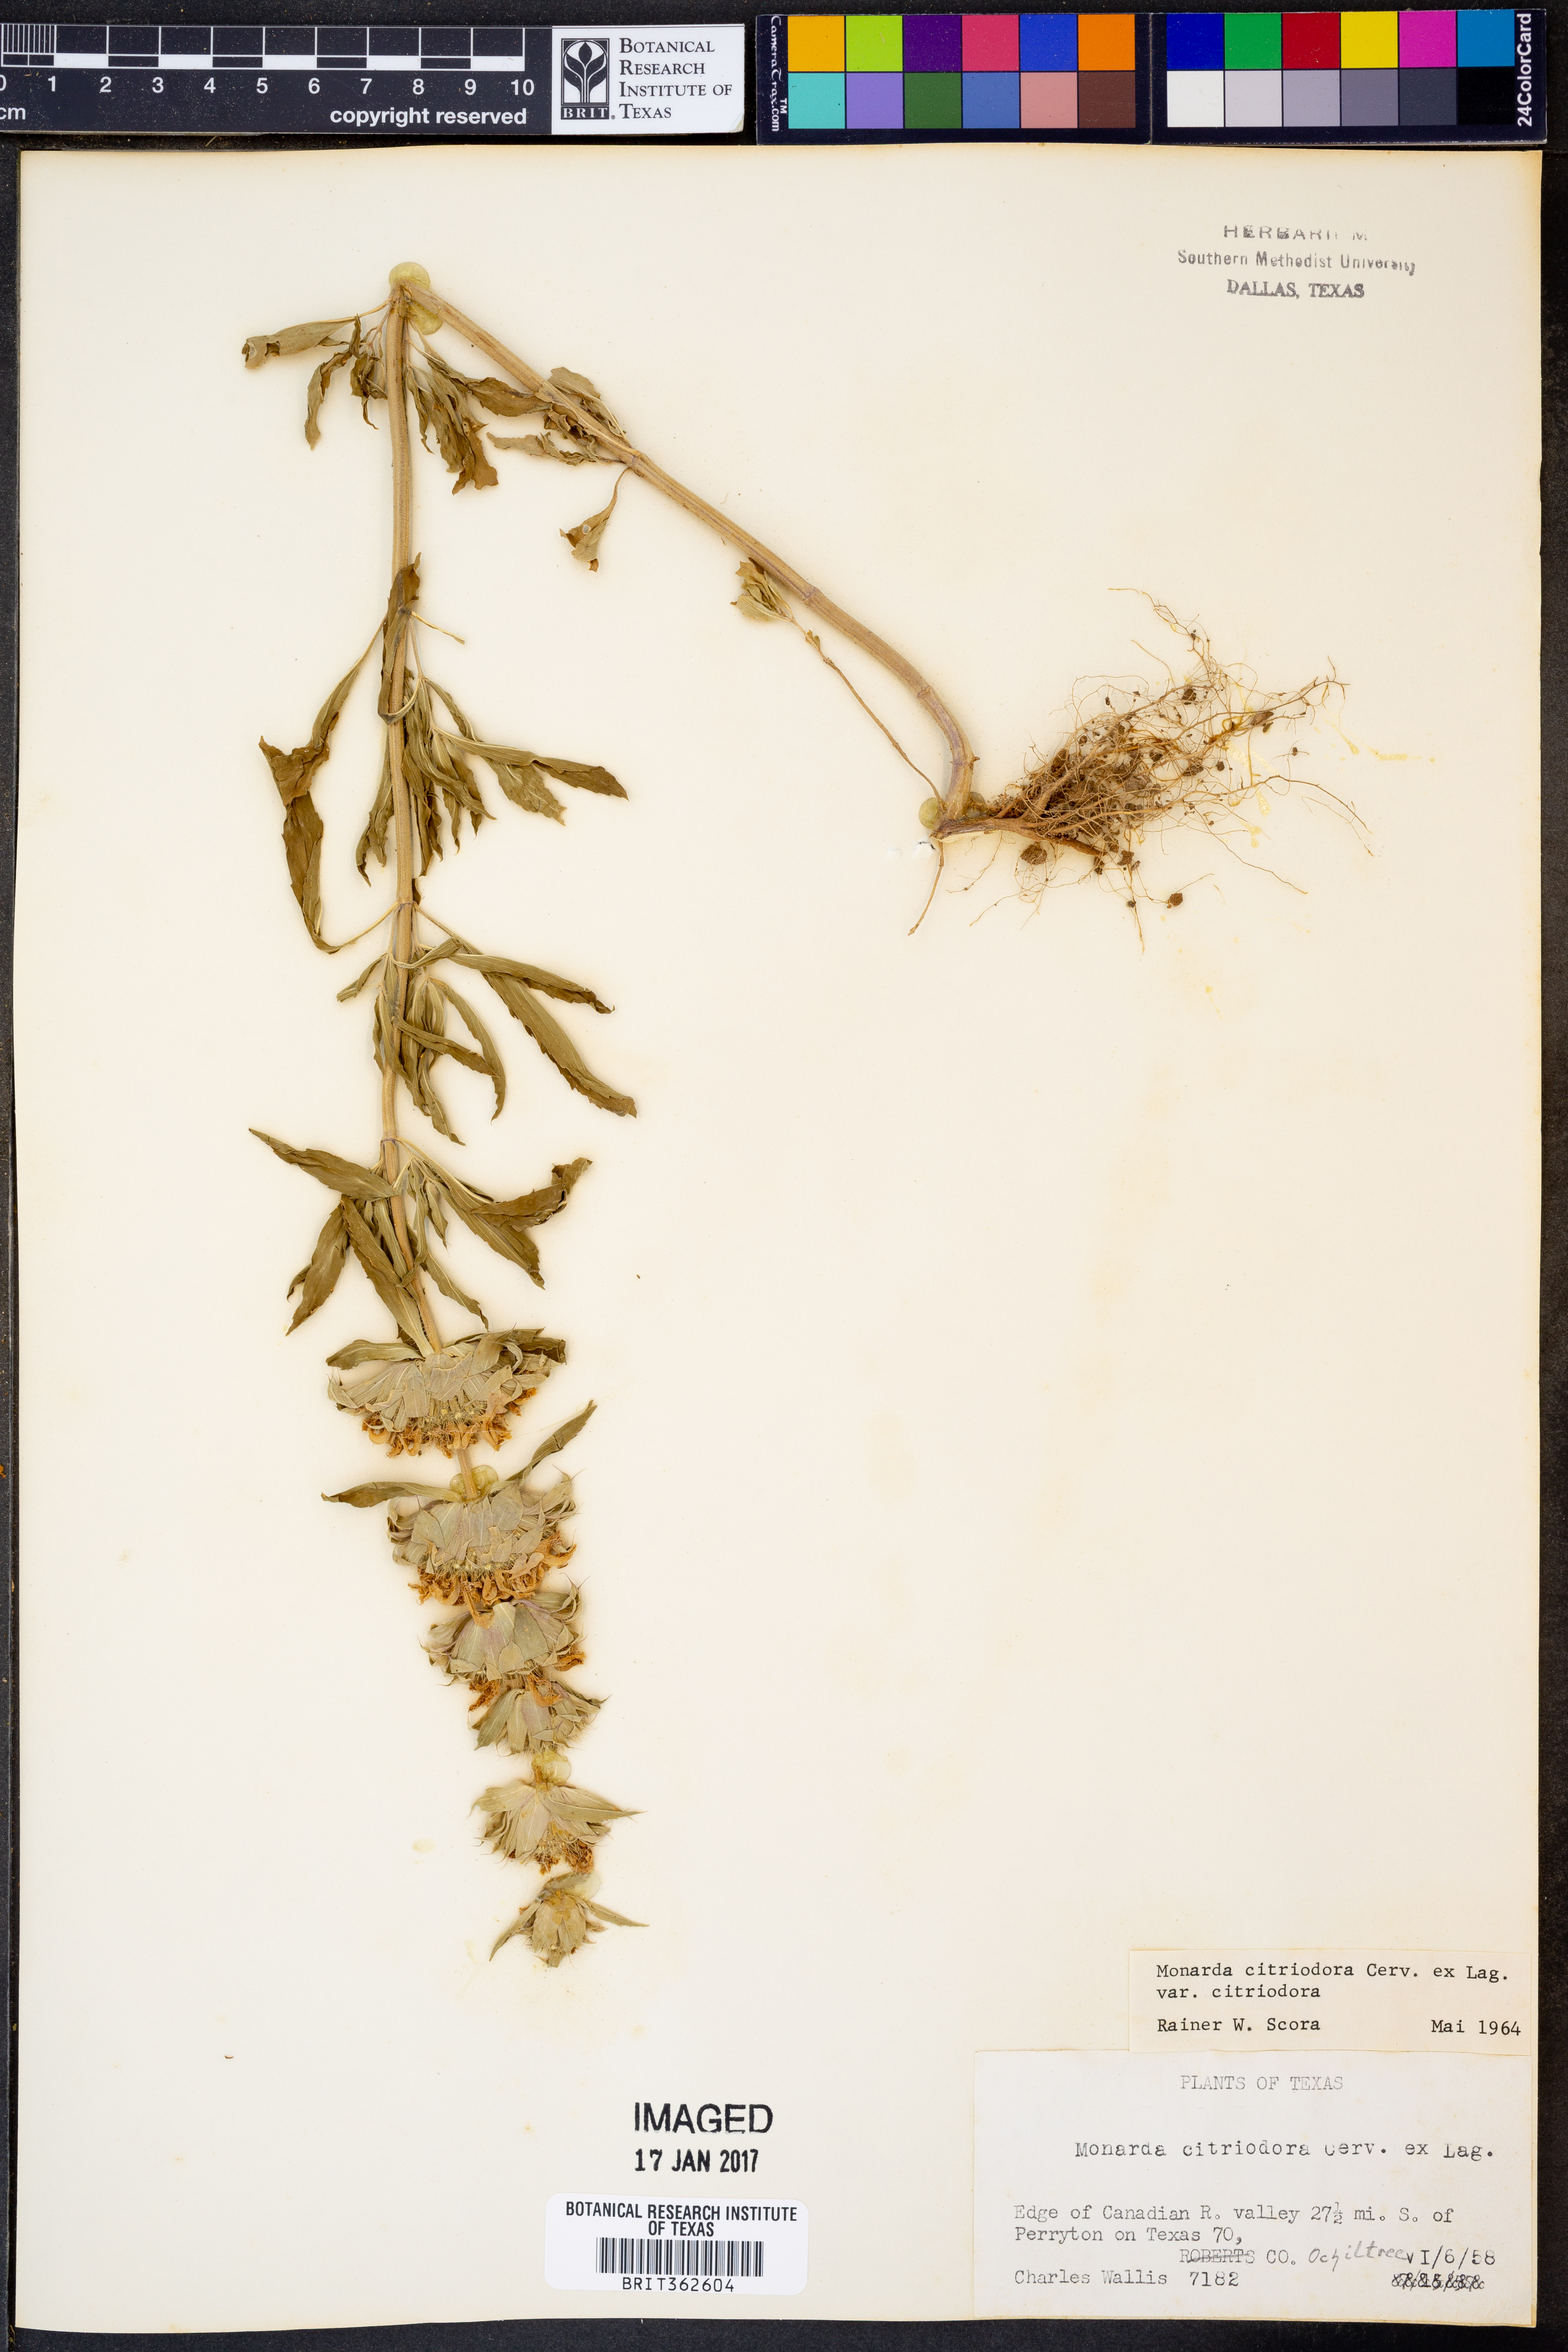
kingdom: Plantae
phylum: Tracheophyta
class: Magnoliopsida
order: Lamiales
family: Lamiaceae
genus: Monarda
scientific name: Monarda citriodora
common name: Lemon beebalm
